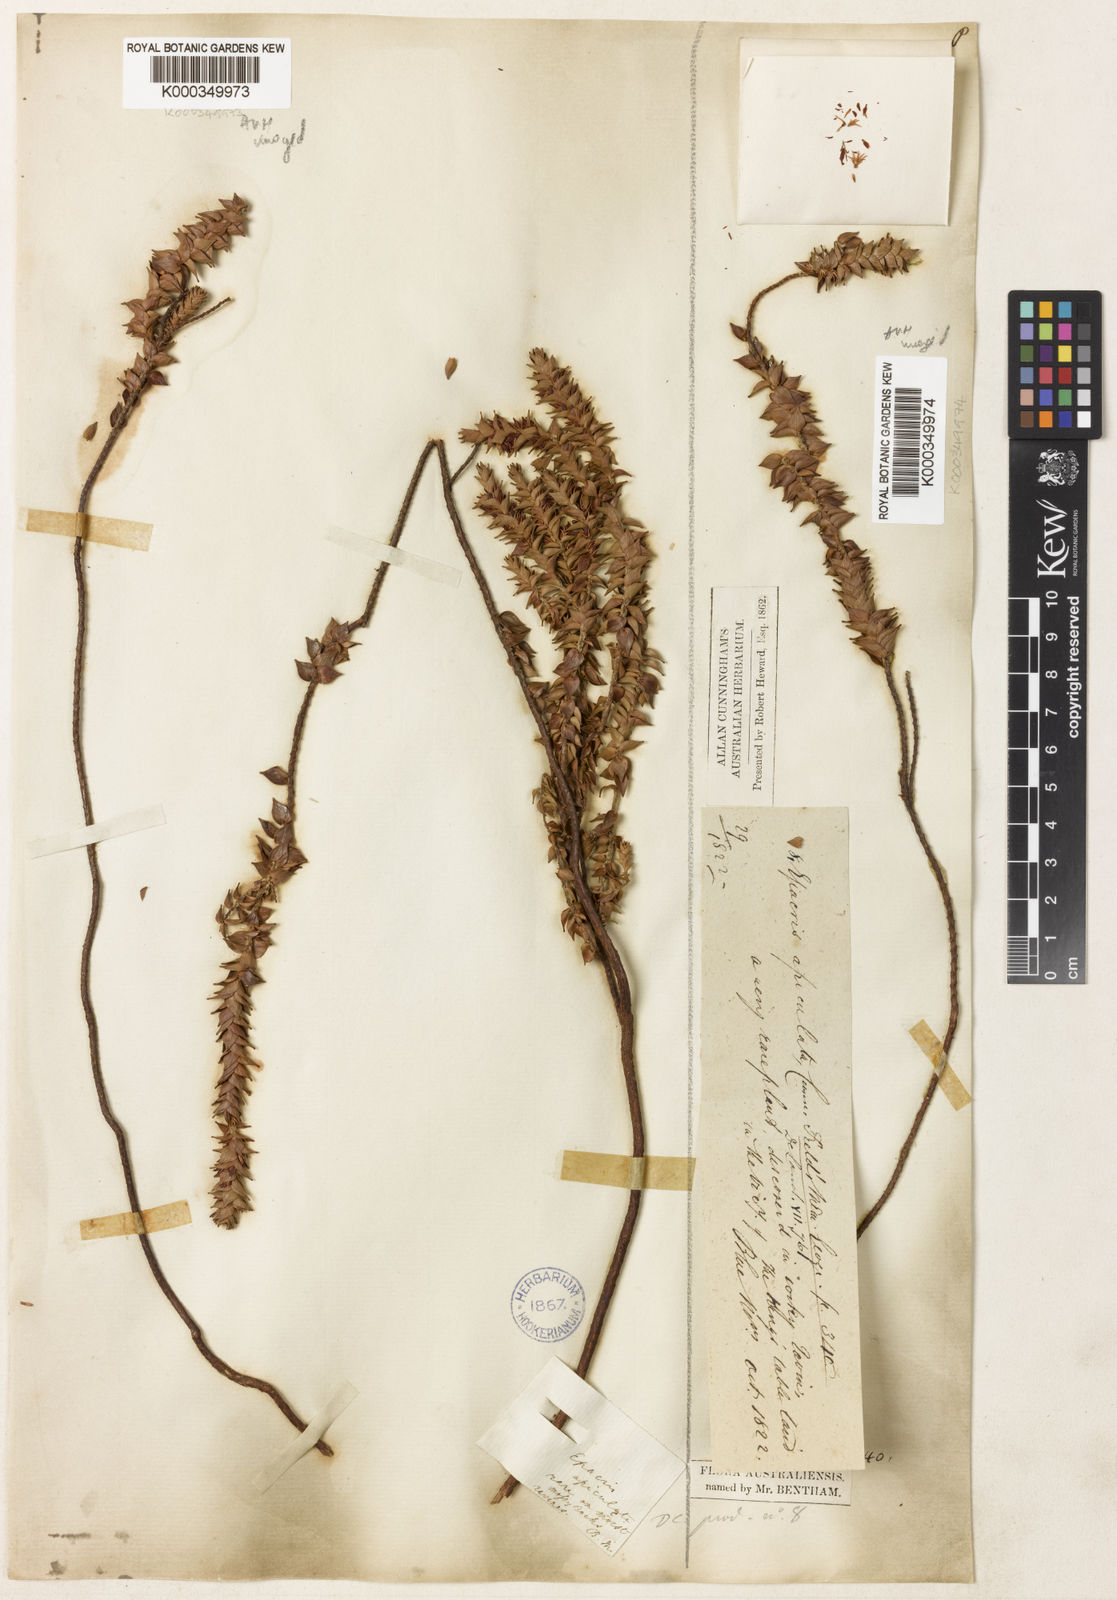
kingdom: Plantae
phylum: Tracheophyta
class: Magnoliopsida
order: Ericales
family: Ericaceae
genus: Prionotes
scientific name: Prionotes cerinthoides
